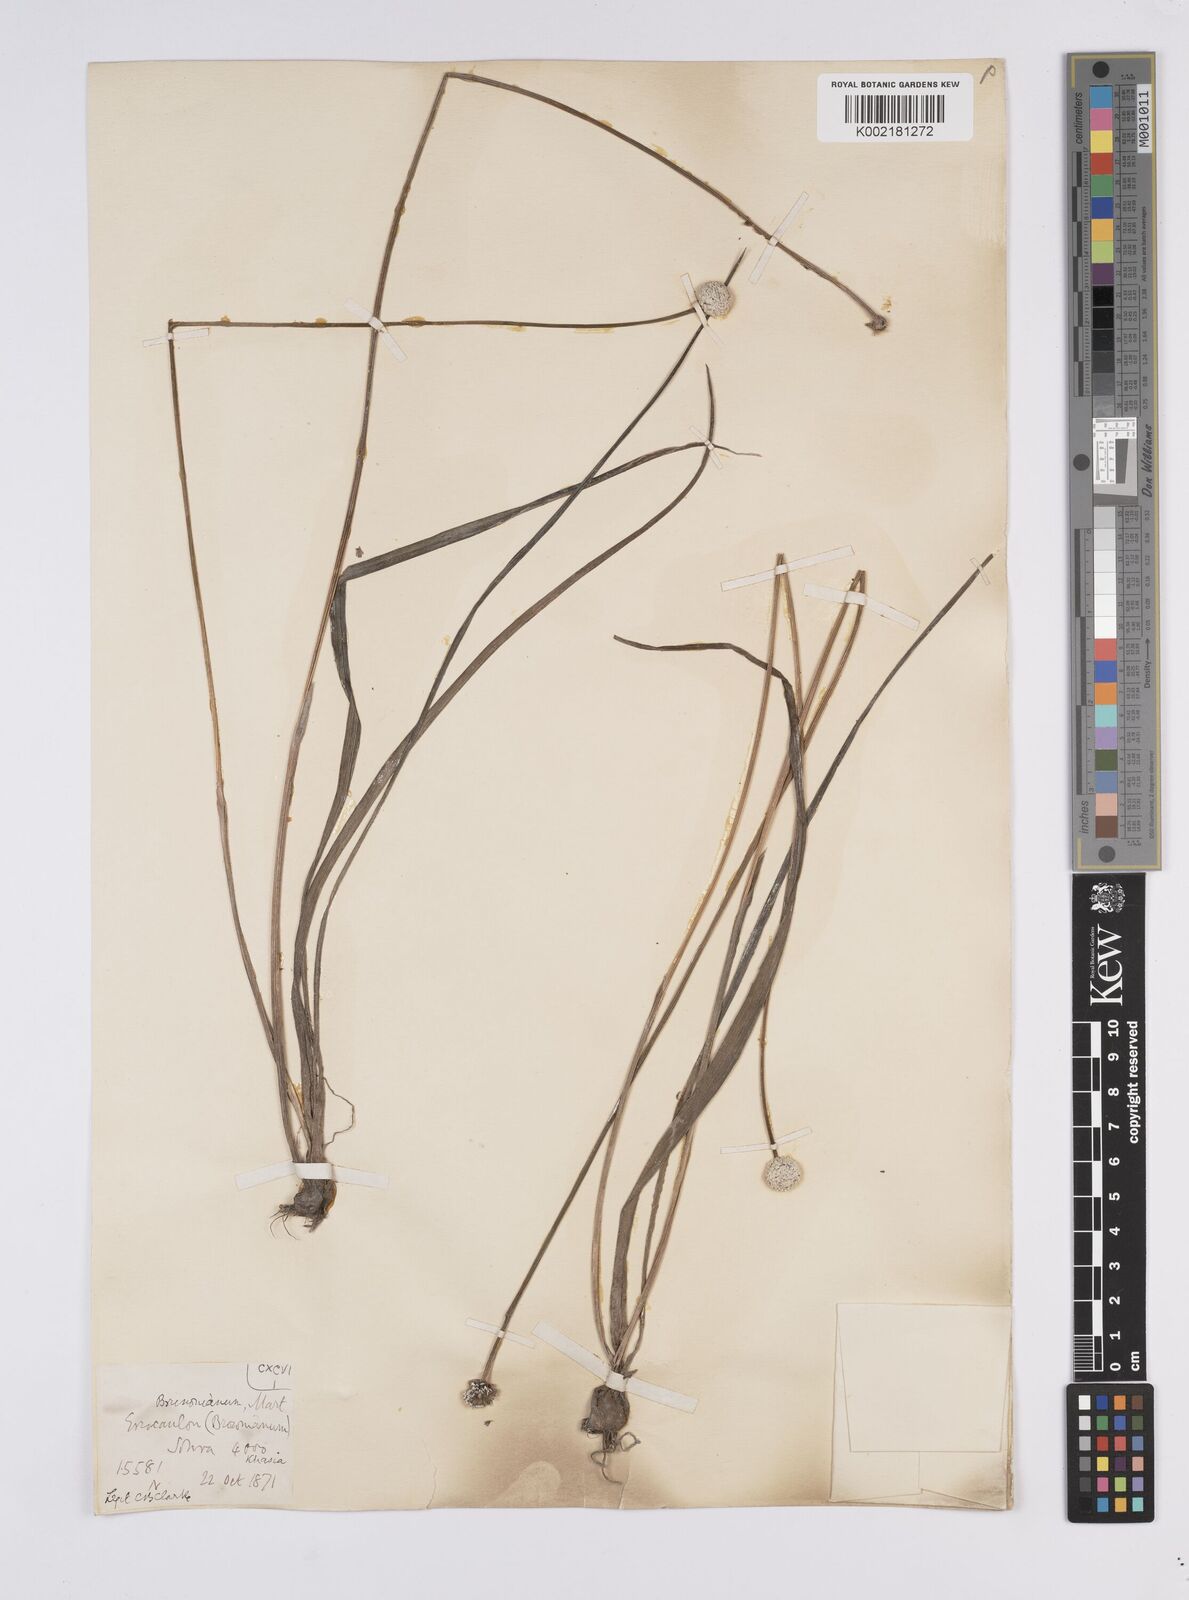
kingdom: Plantae
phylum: Tracheophyta
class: Liliopsida
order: Poales
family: Eriocaulaceae
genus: Eriocaulon
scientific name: Eriocaulon brownianum
